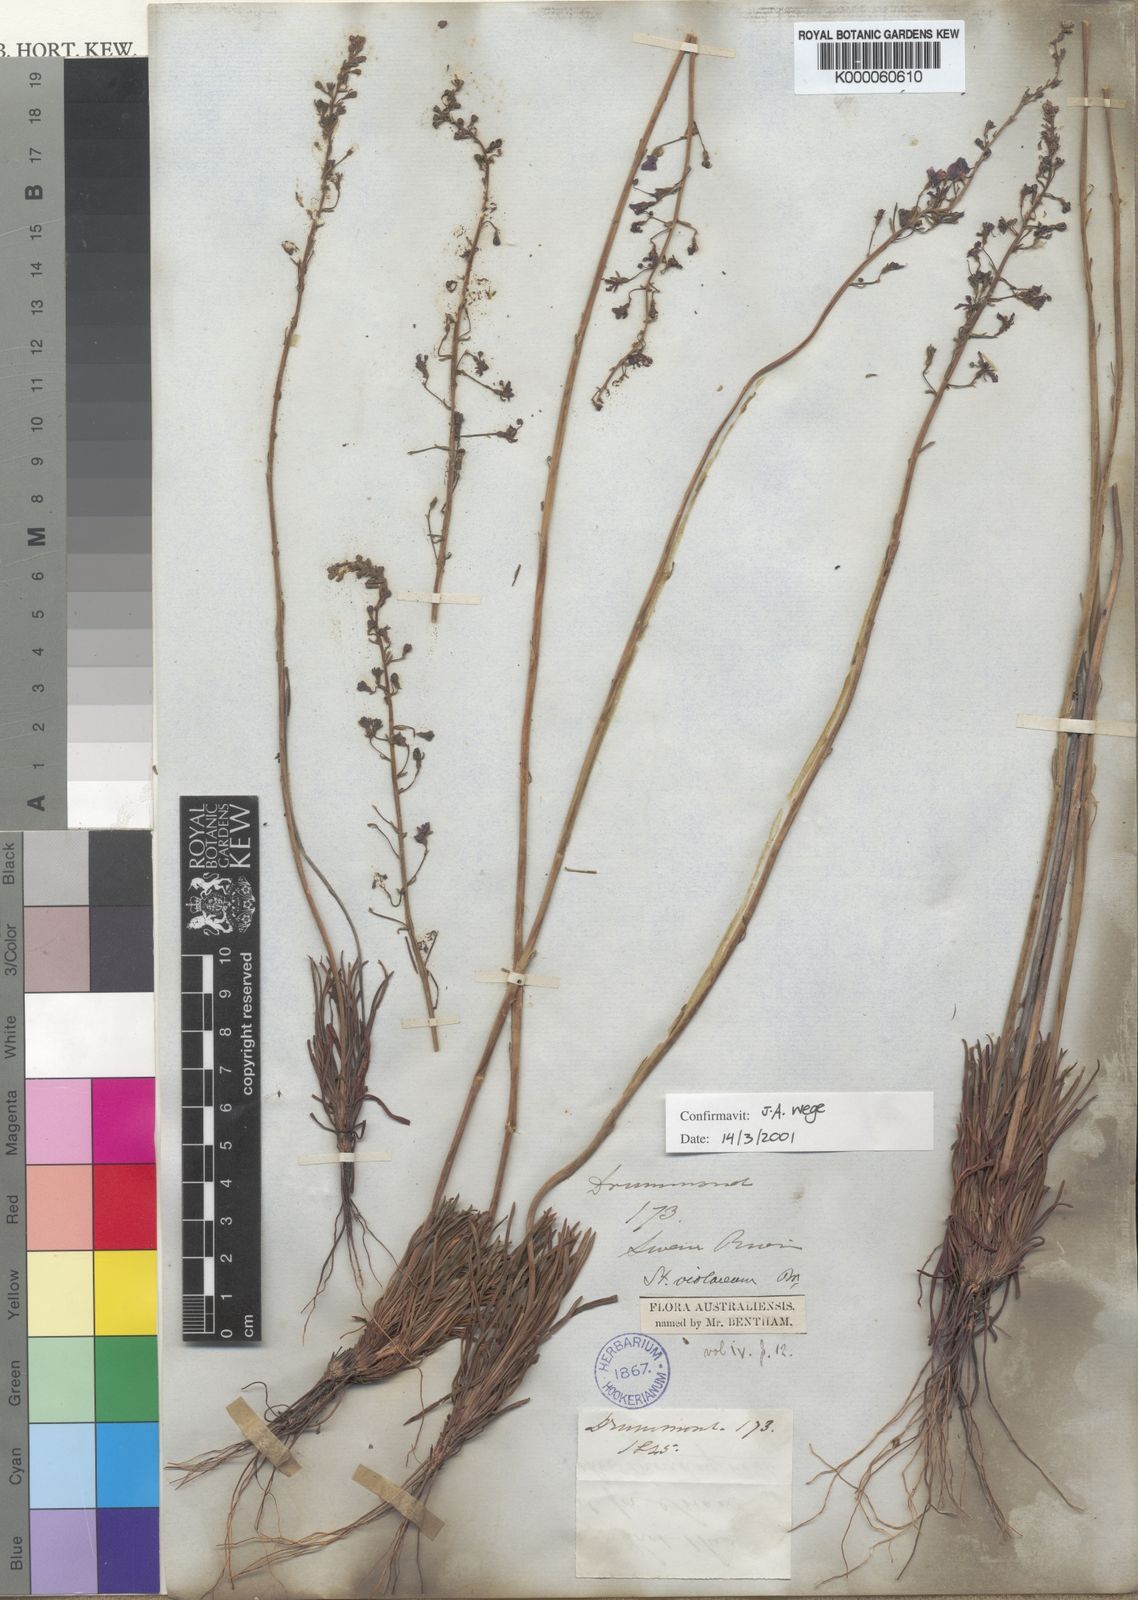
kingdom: Plantae
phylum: Tracheophyta
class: Magnoliopsida
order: Asterales
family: Stylidiaceae
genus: Stylidium
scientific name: Stylidium violaceum
